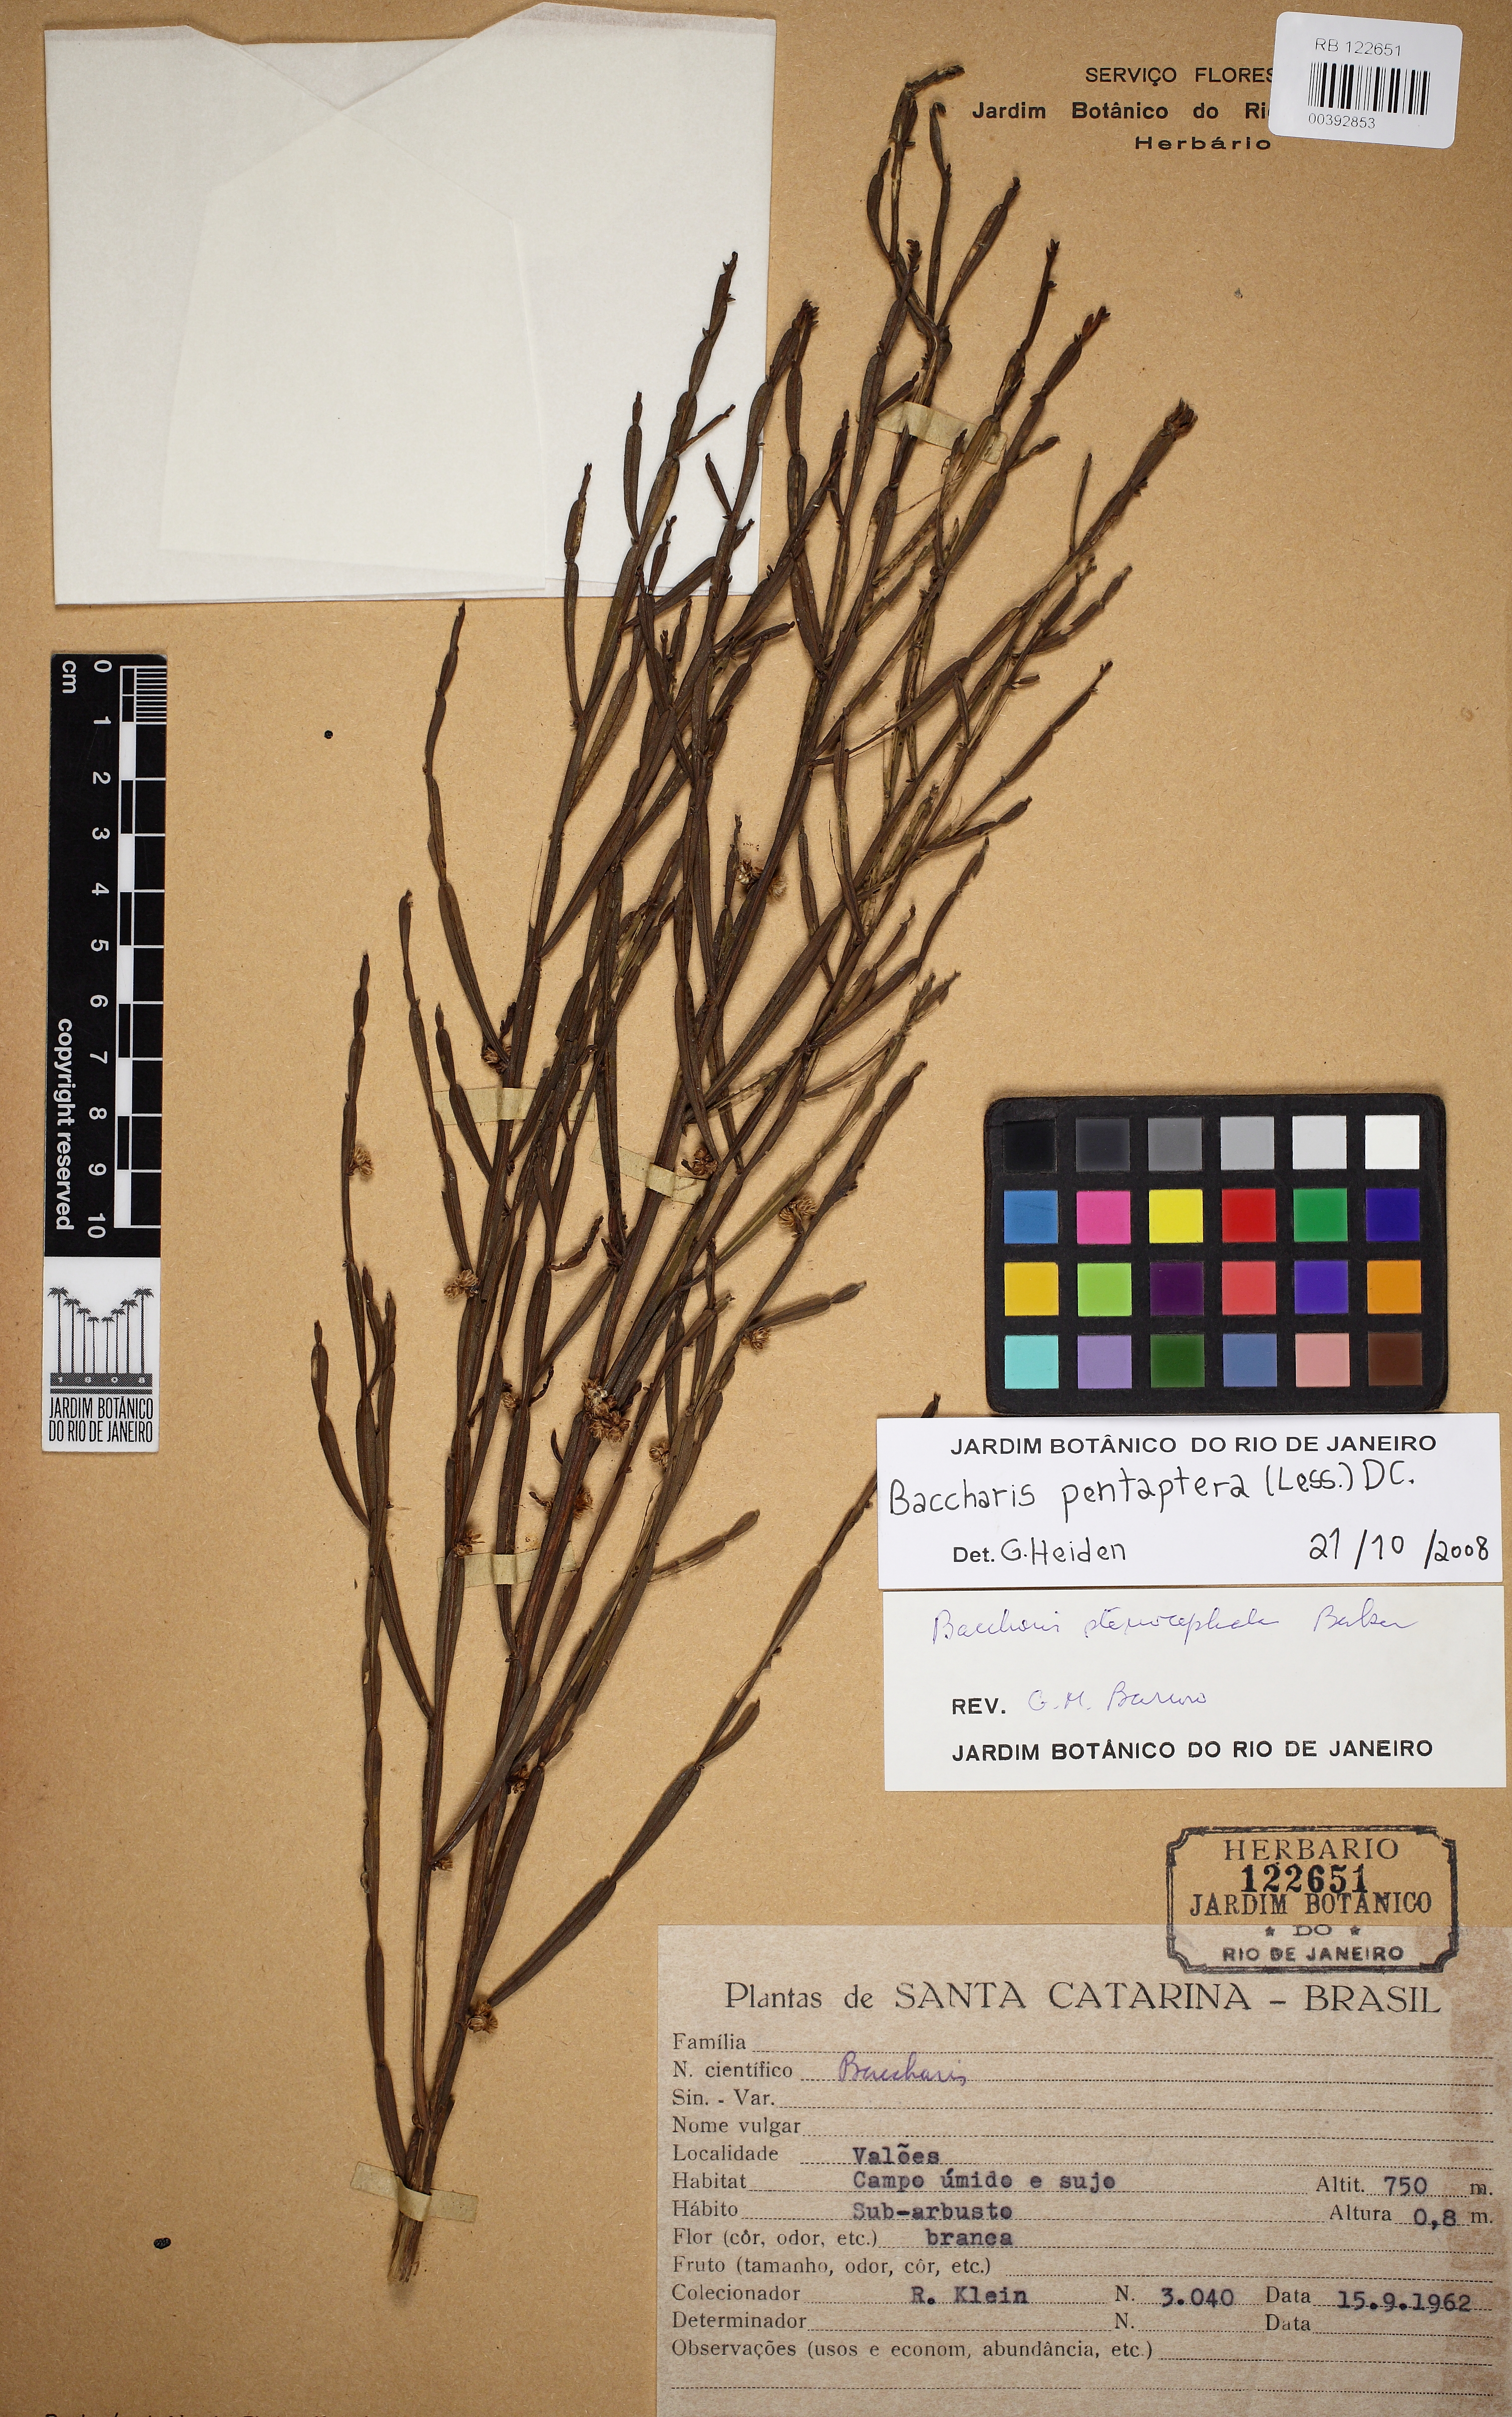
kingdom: Plantae
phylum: Tracheophyta
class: Magnoliopsida
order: Asterales
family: Asteraceae
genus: Baccharis
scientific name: Baccharis pentaptera
